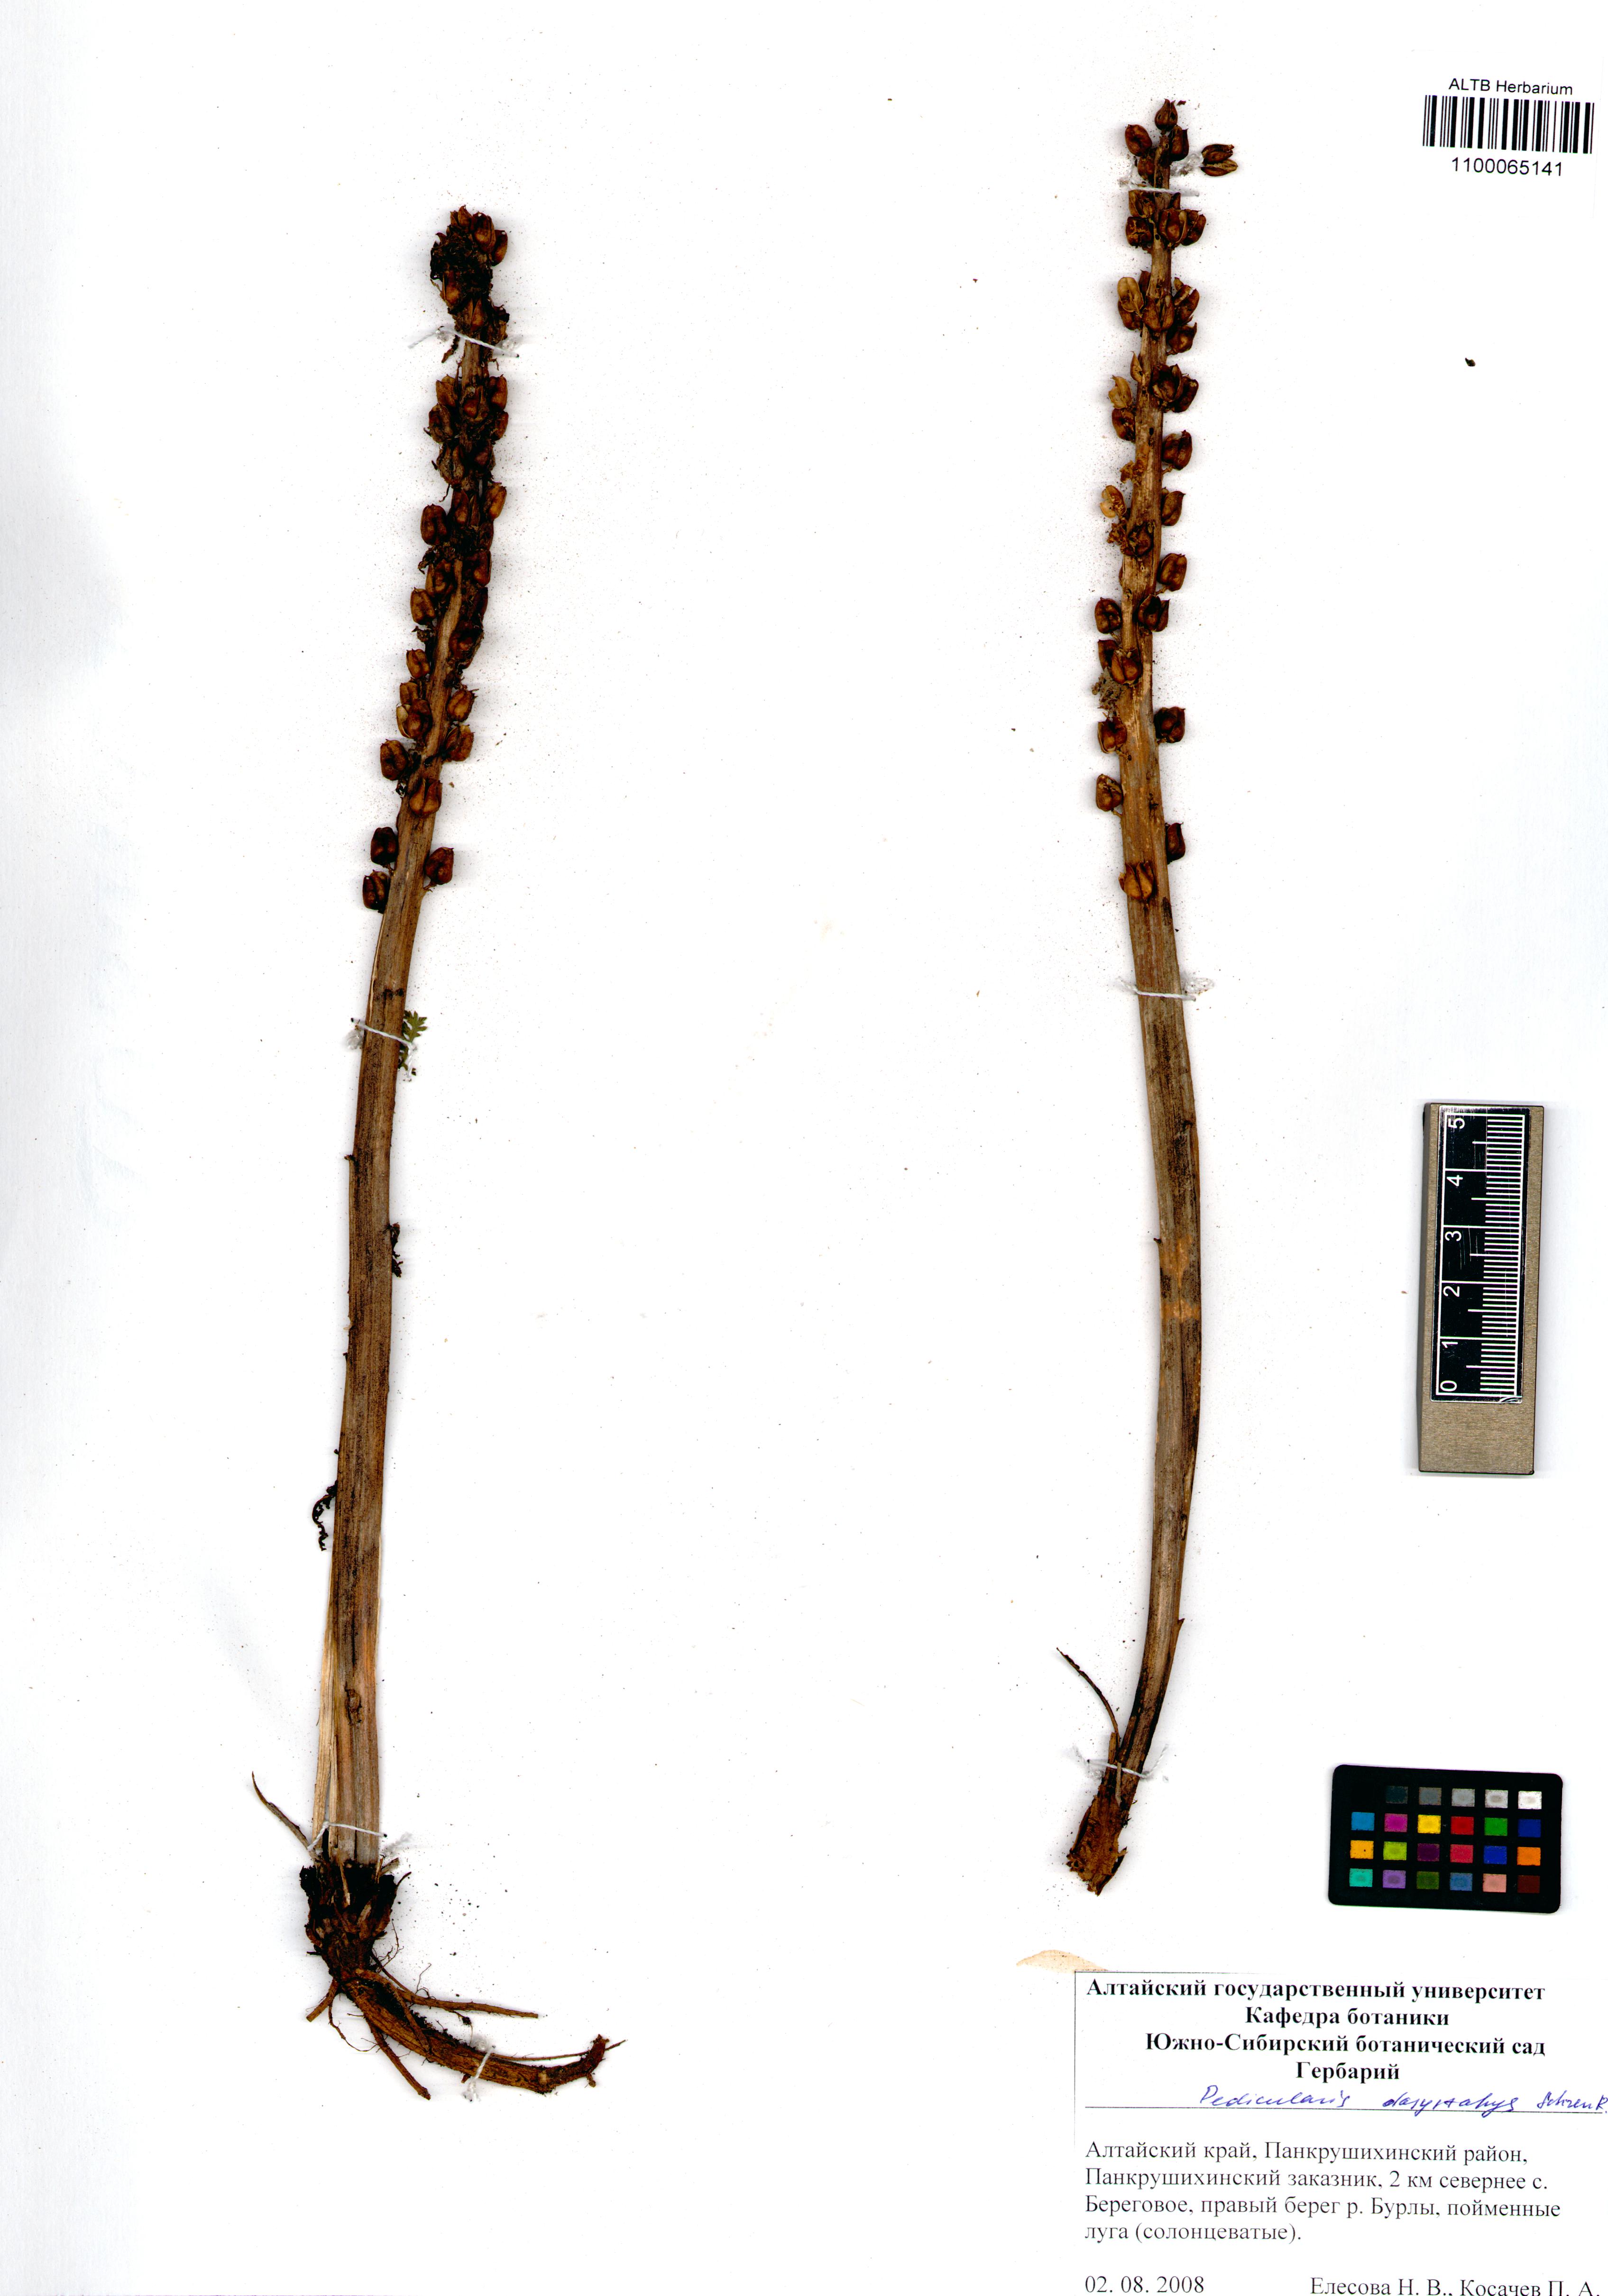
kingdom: Plantae
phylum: Tracheophyta
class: Magnoliopsida
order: Lamiales
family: Orobanchaceae
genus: Pedicularis
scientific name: Pedicularis dasystachys
